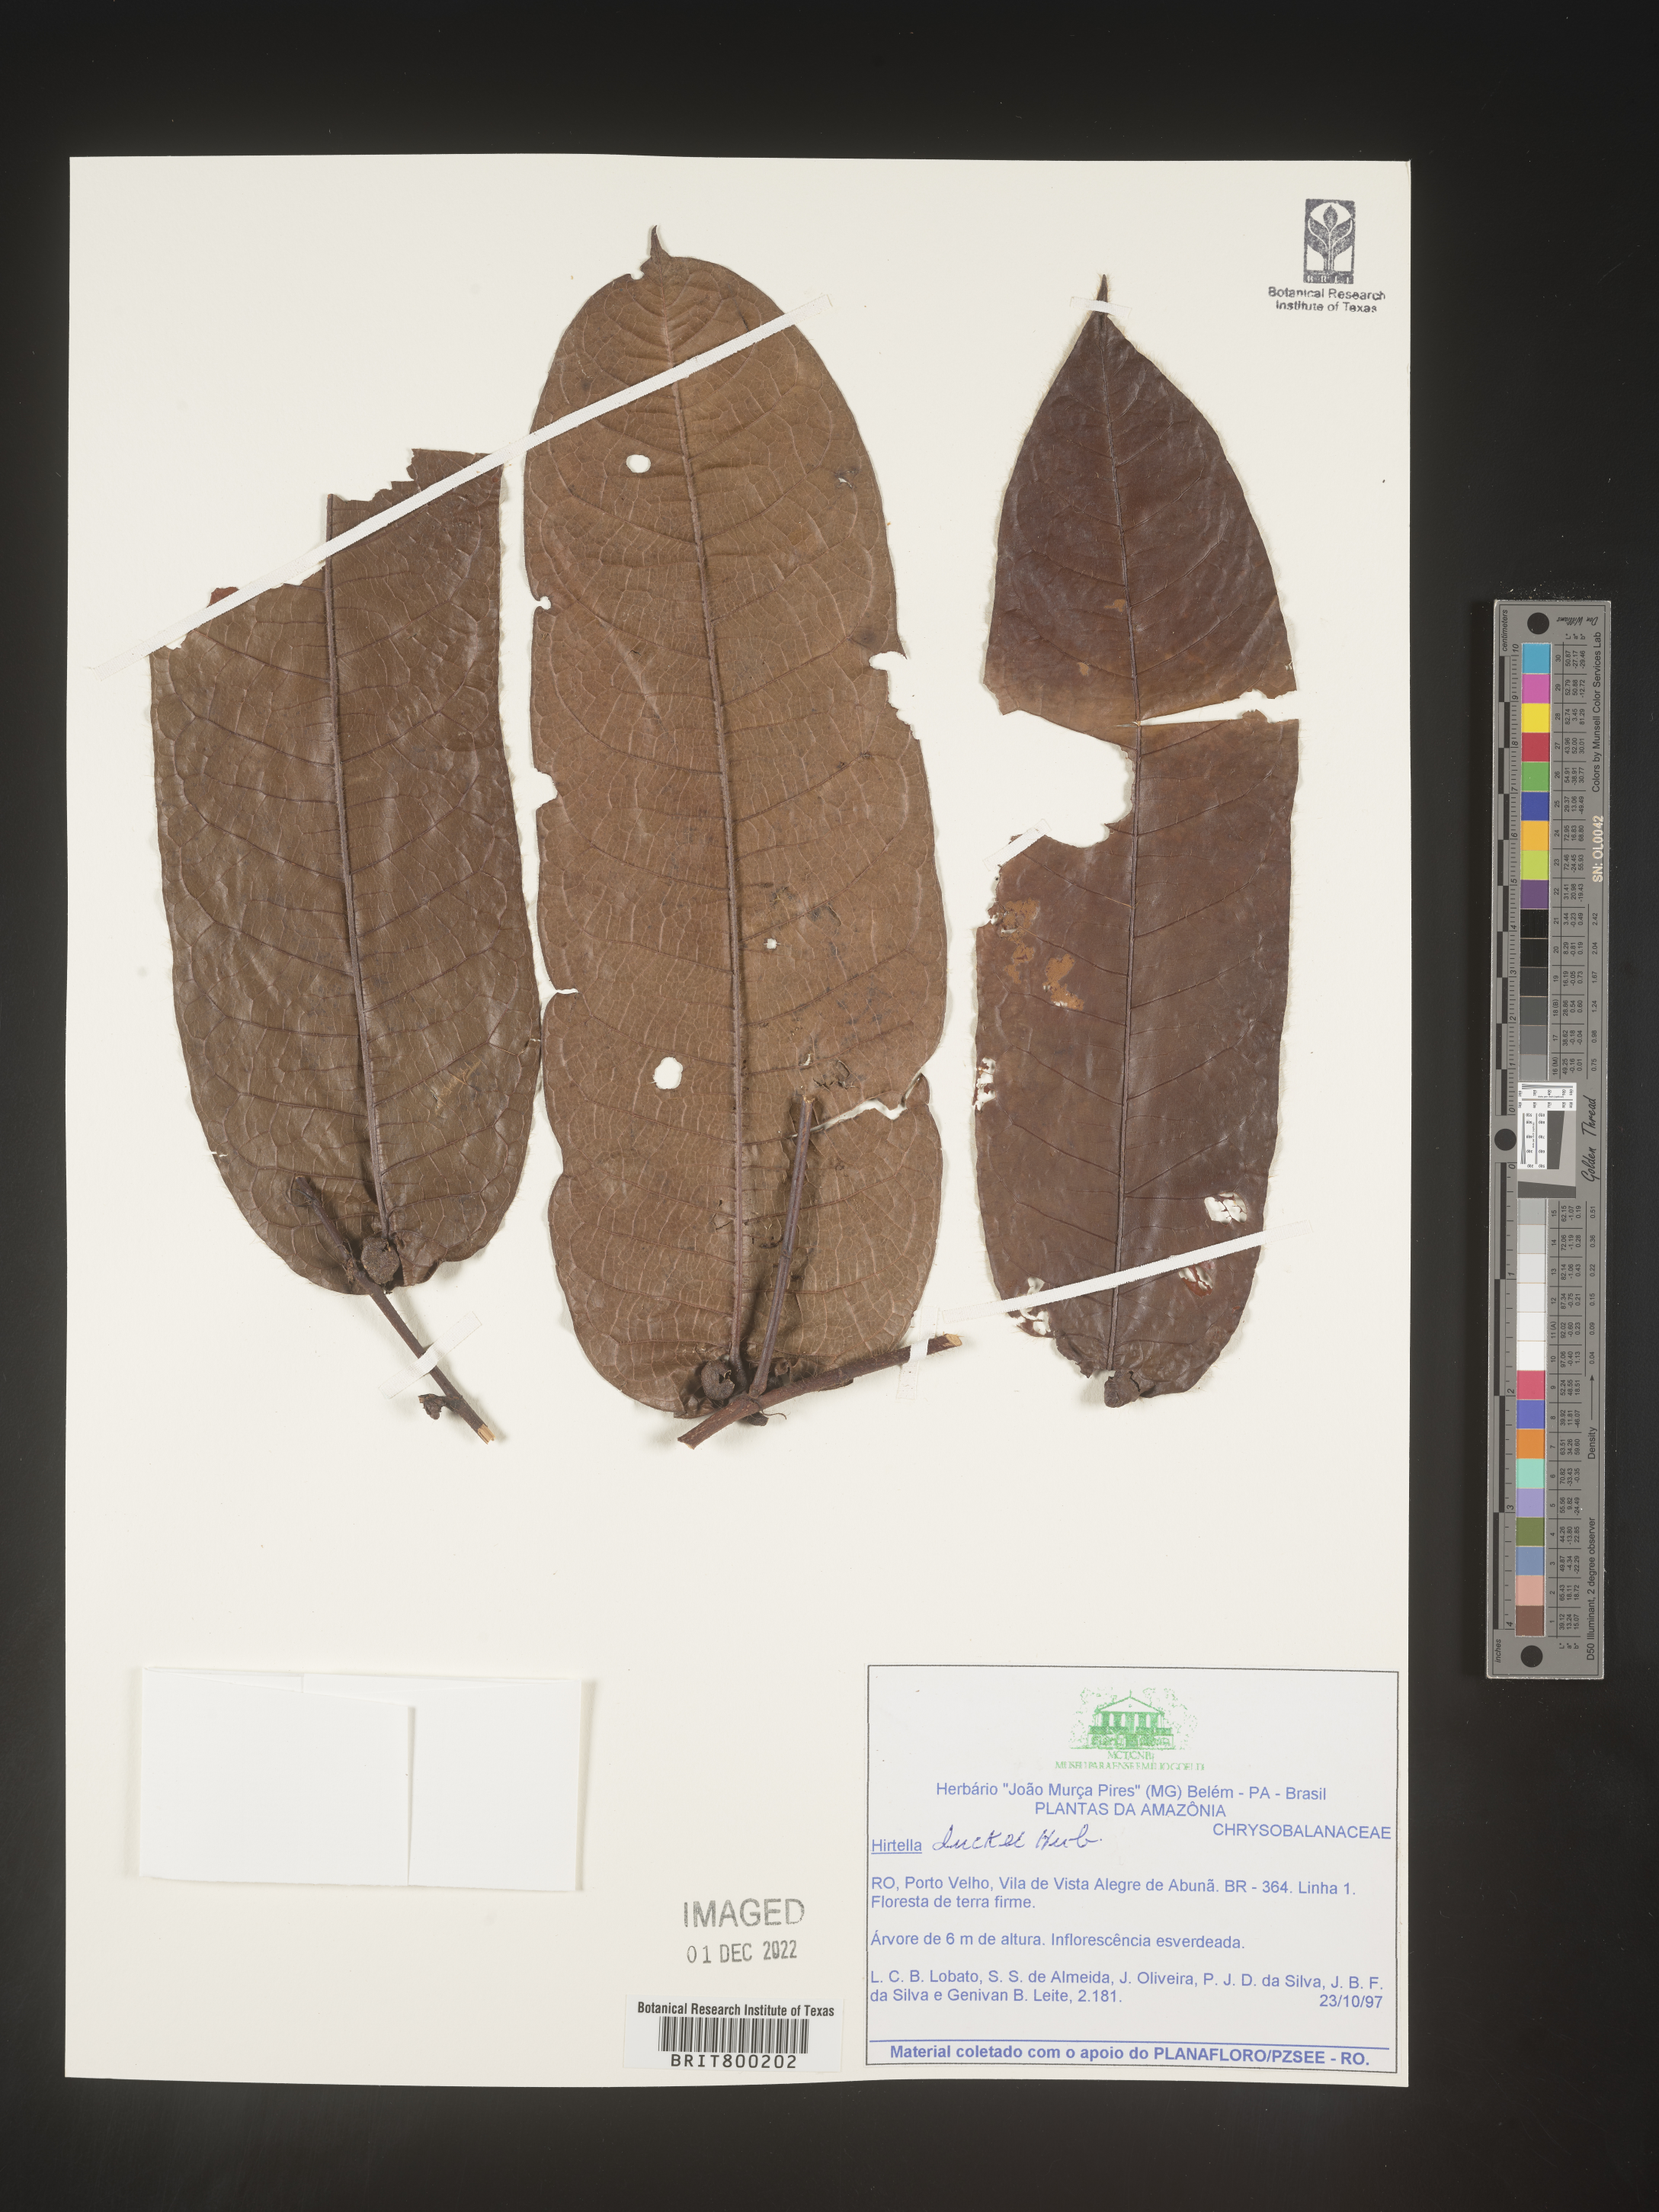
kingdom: Plantae
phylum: Tracheophyta
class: Magnoliopsida
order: Malpighiales
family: Chrysobalanaceae
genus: Hirtella
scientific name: Hirtella
